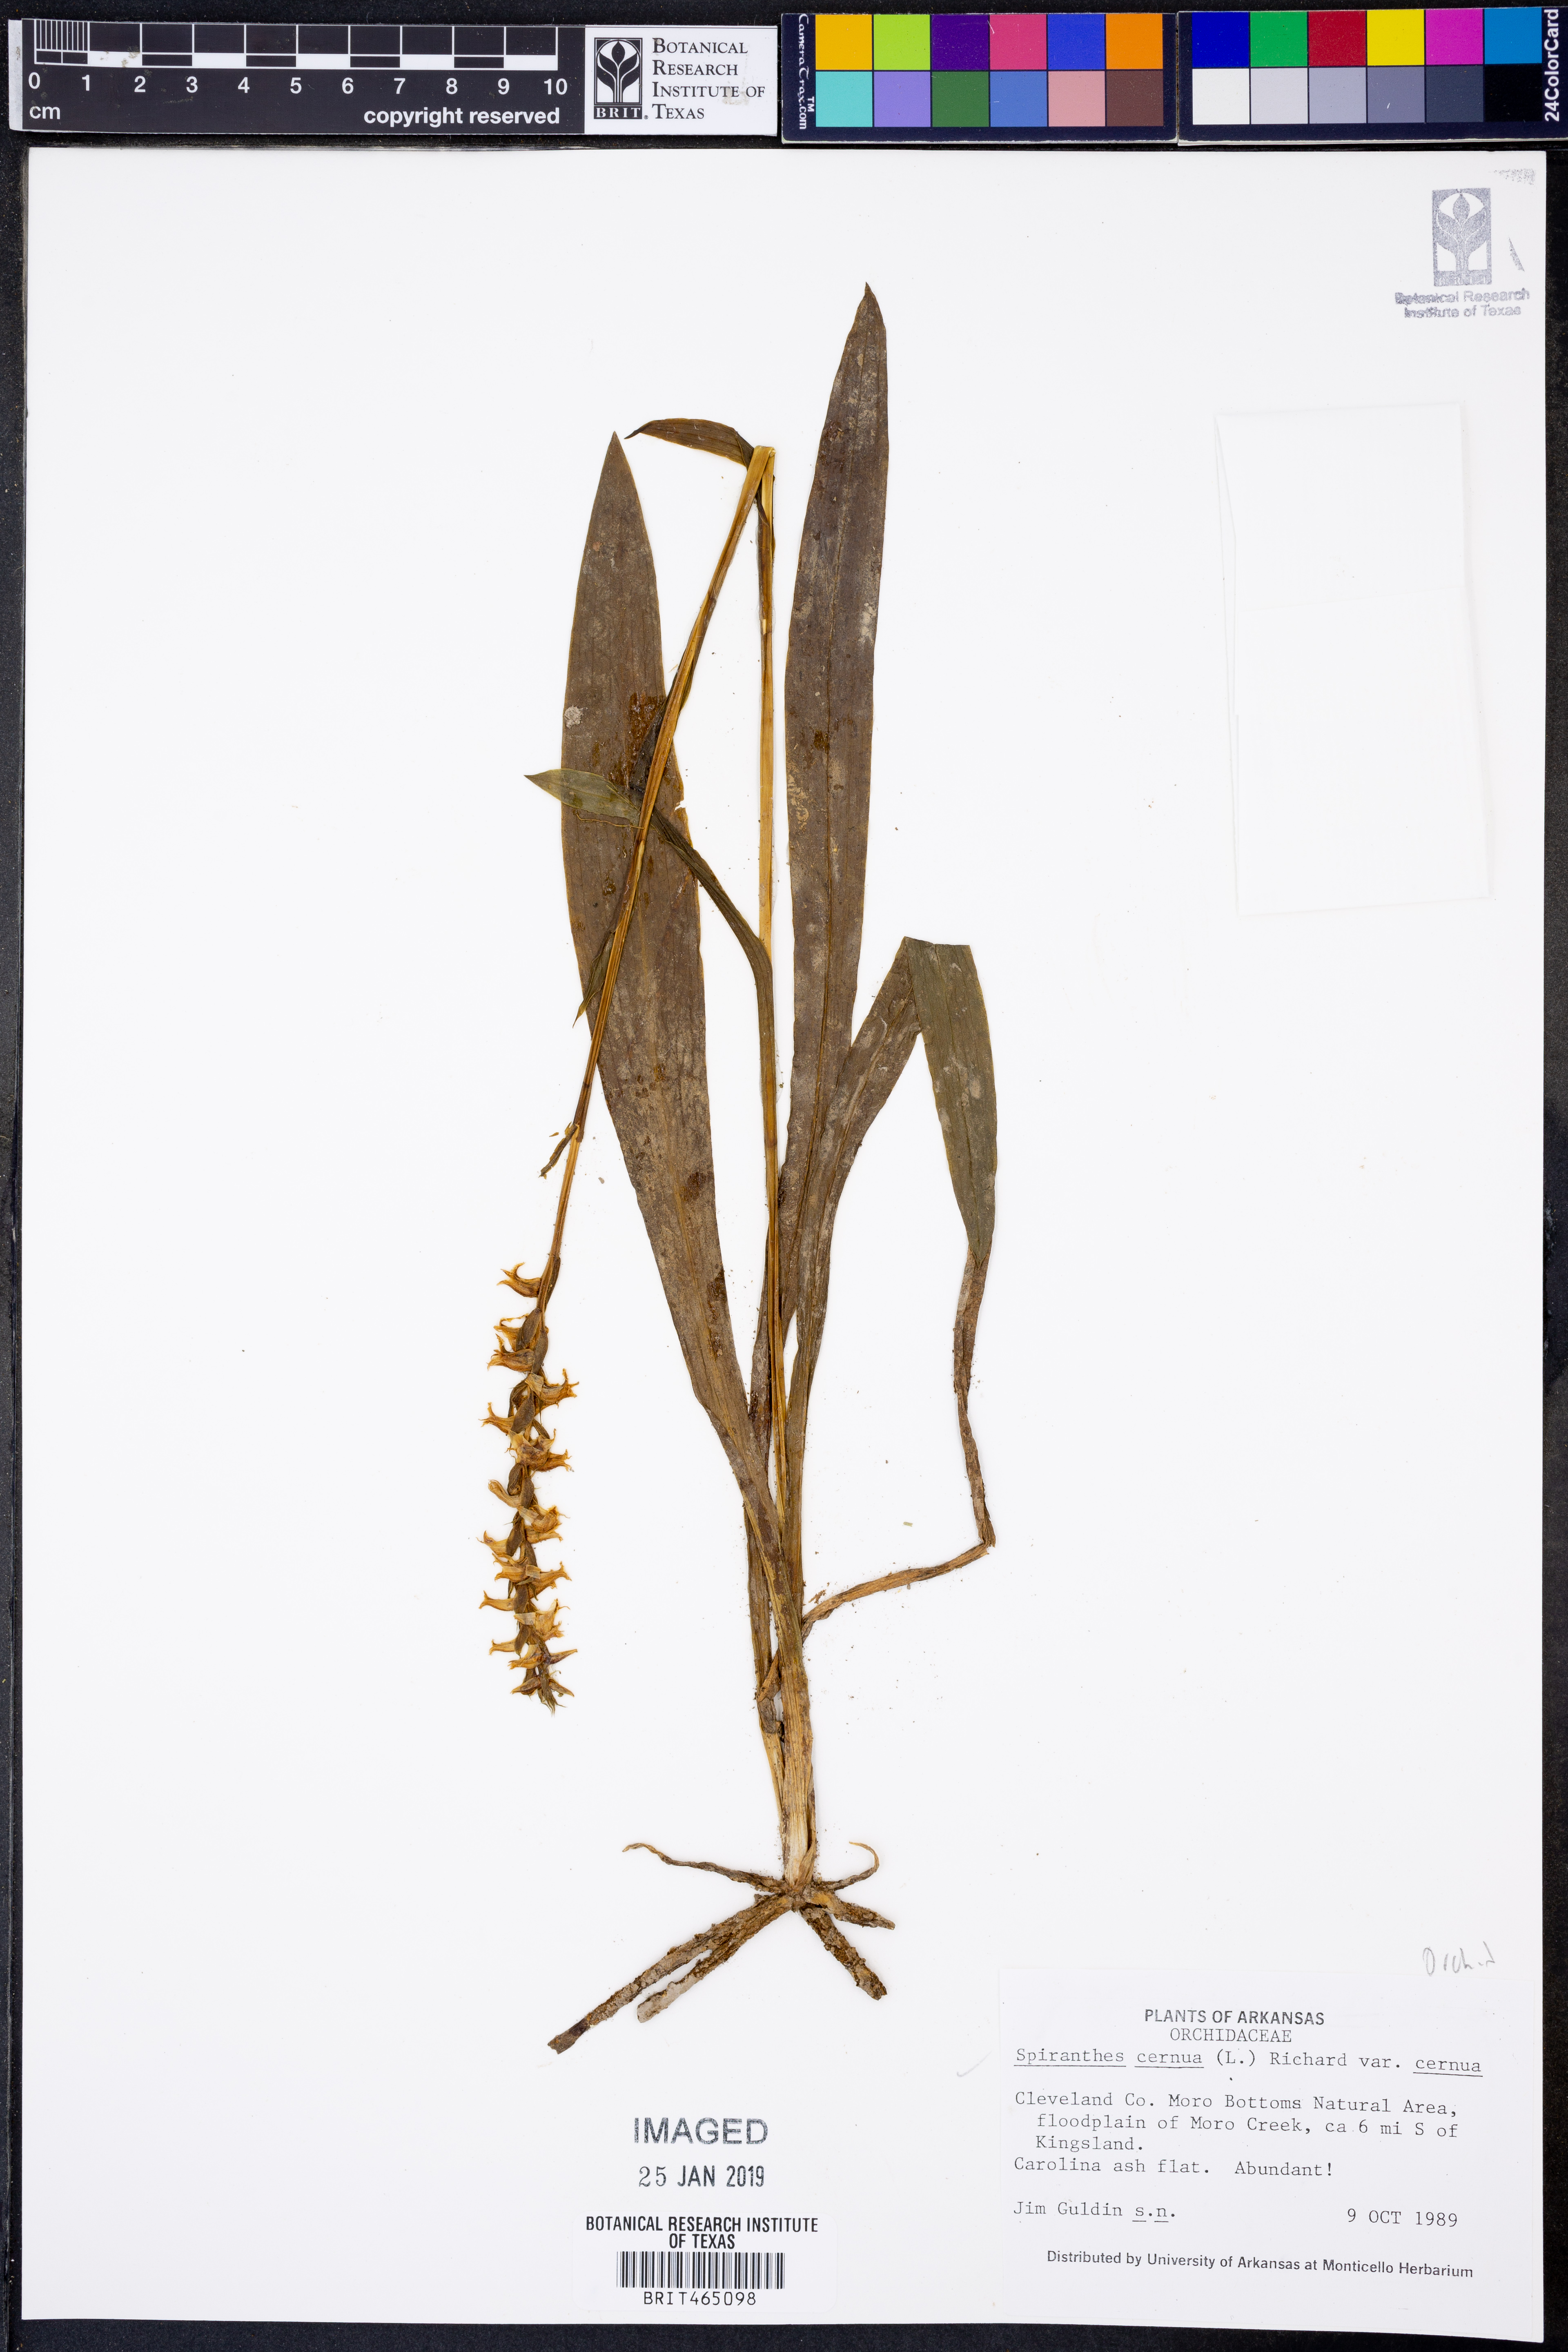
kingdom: Plantae
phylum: Tracheophyta
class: Liliopsida
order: Asparagales
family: Orchidaceae
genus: Spiranthes
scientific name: Spiranthes cernua
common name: Dropping ladies'-tresses
